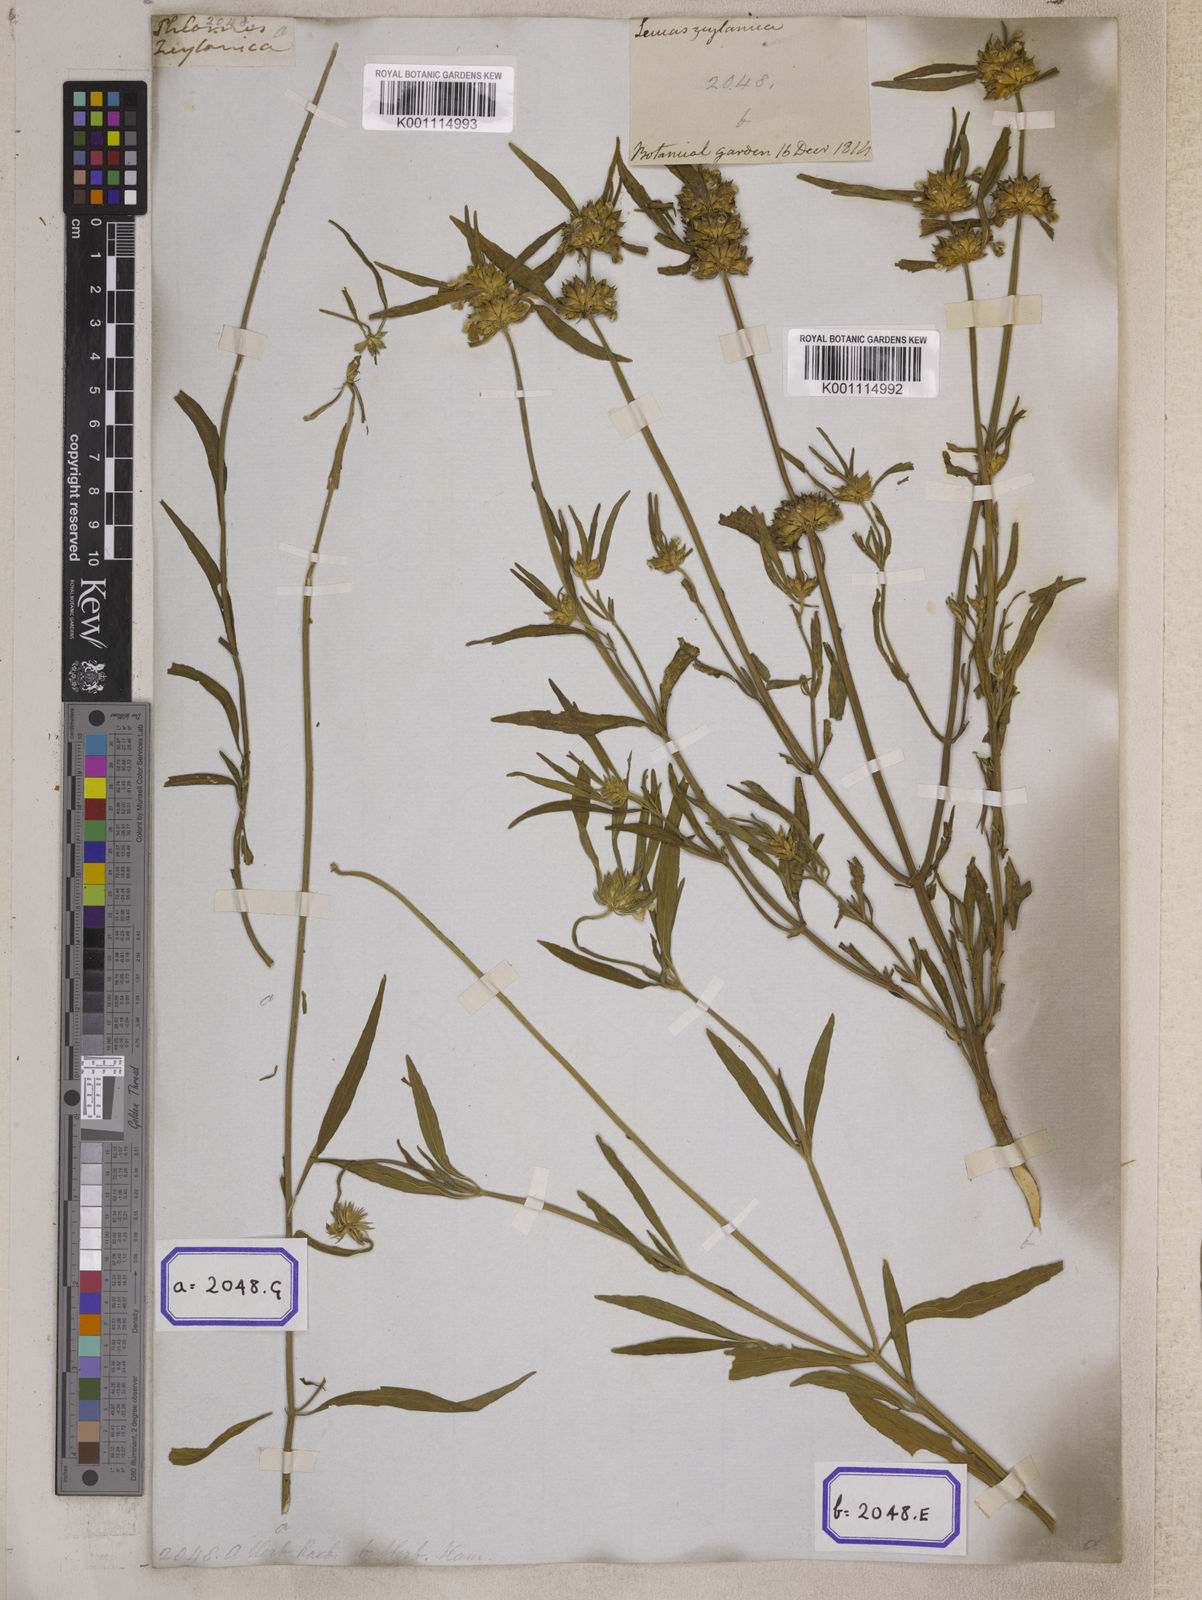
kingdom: Plantae
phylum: Tracheophyta
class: Magnoliopsida
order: Lamiales
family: Lamiaceae
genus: Leucas
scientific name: Leucas lavandulifolia
